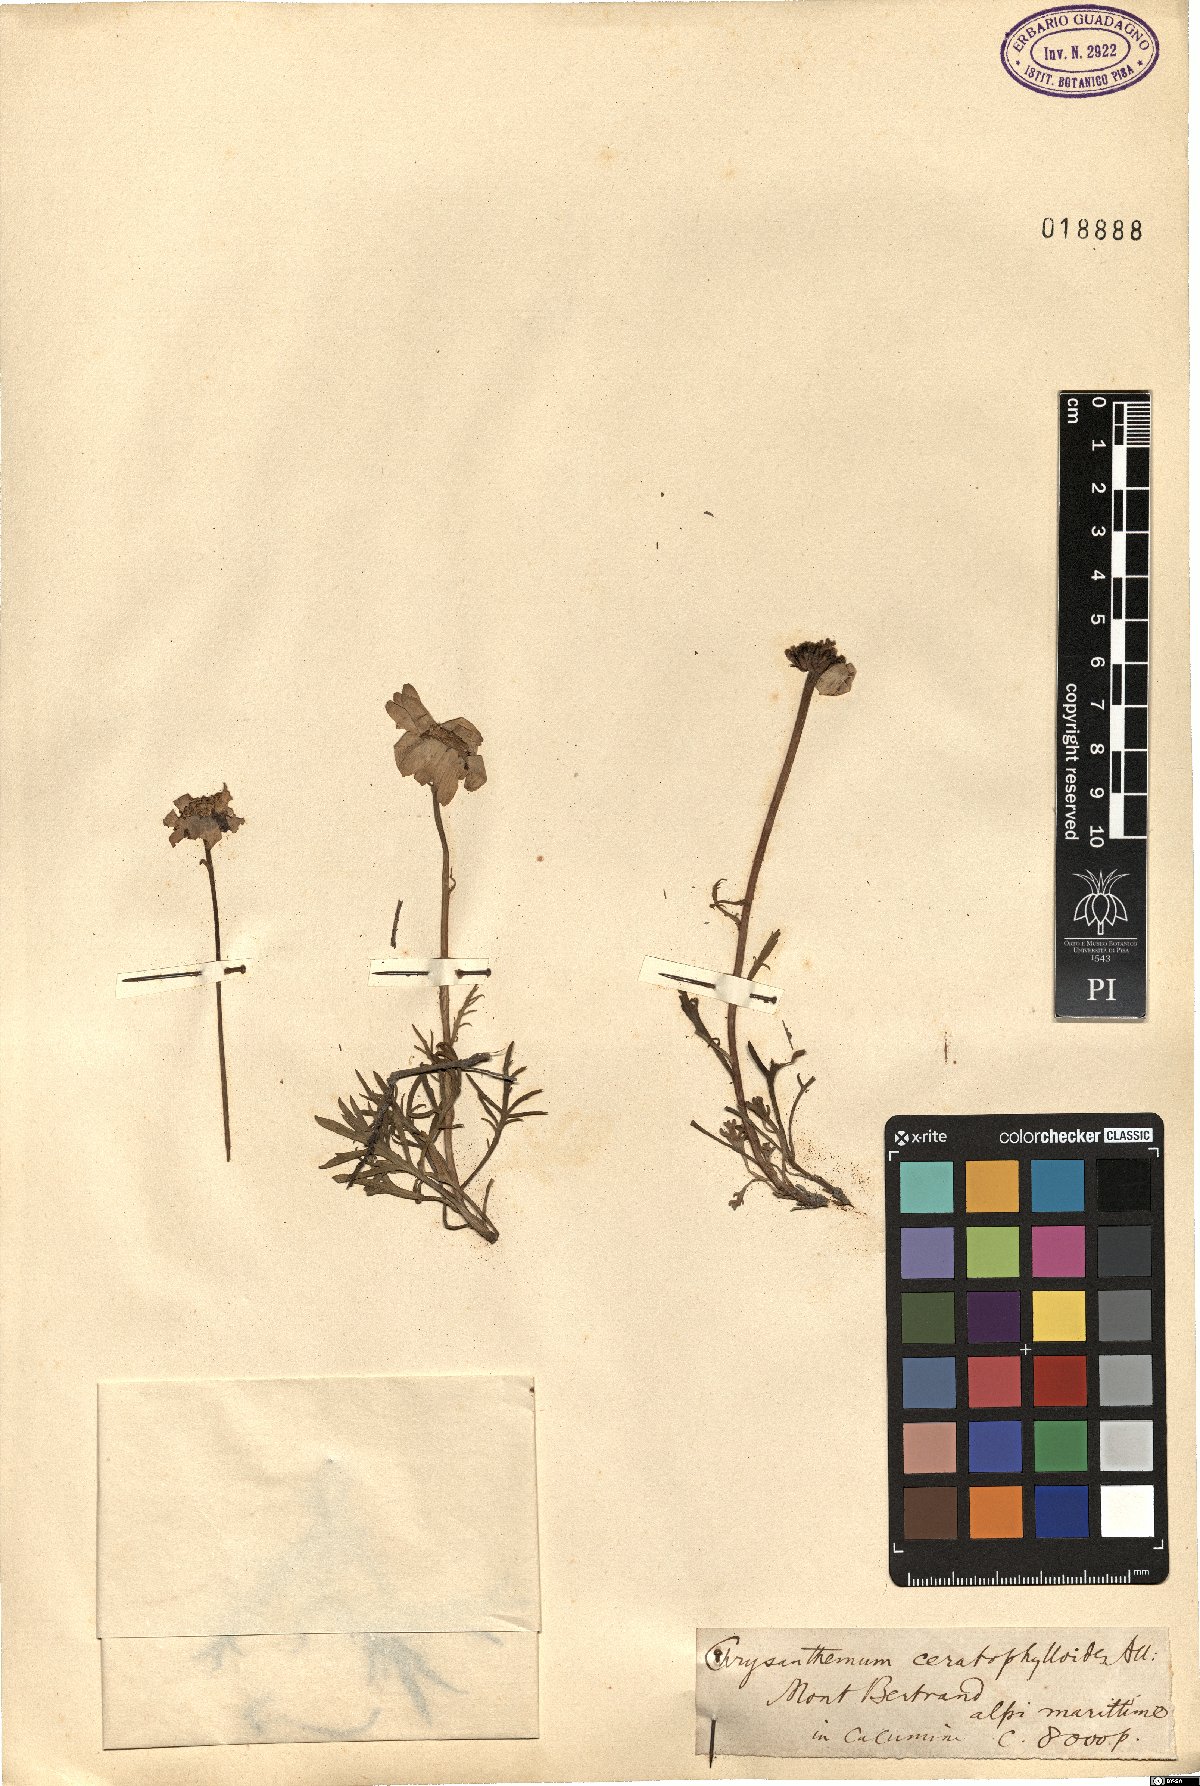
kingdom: Plantae
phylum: Tracheophyta
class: Magnoliopsida
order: Asterales
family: Asteraceae
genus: Leucanthemum
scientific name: Leucanthemum coronopifolium
